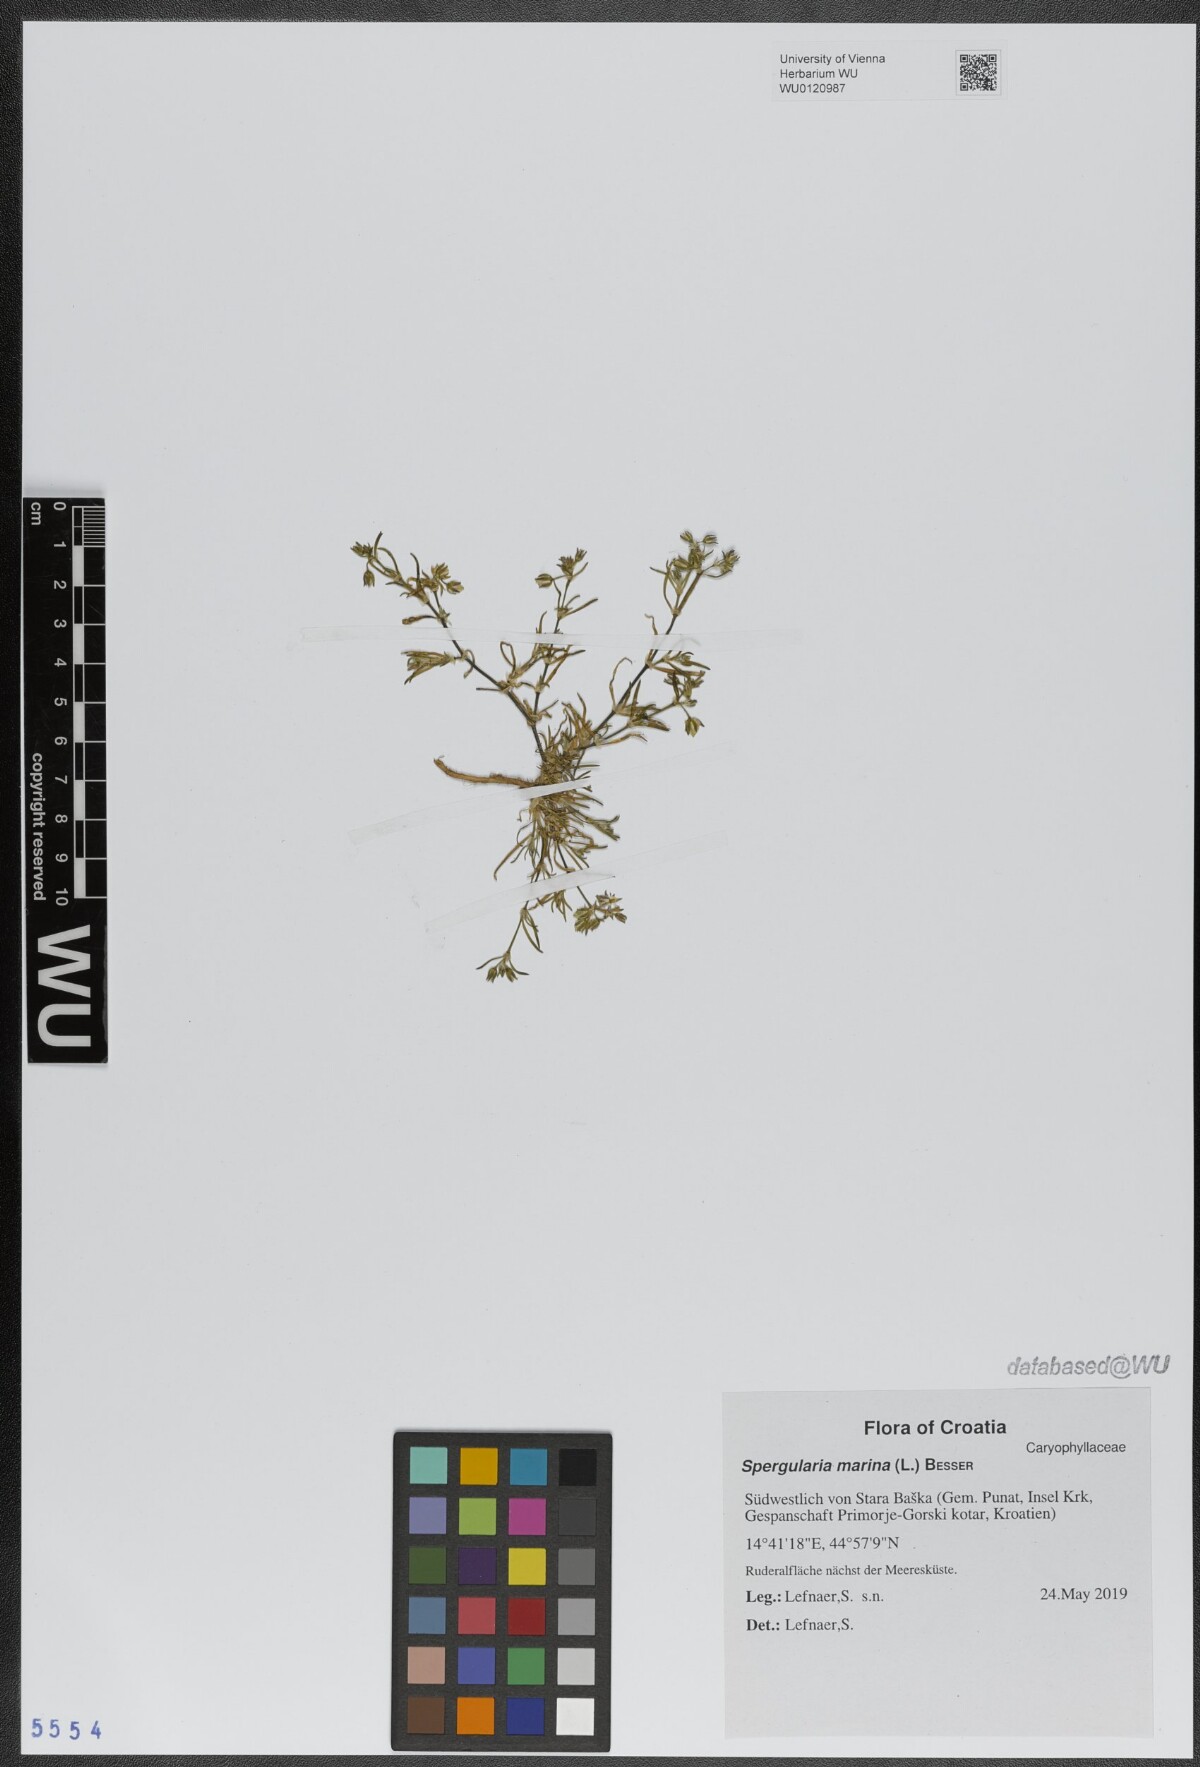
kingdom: Plantae
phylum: Tracheophyta
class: Magnoliopsida
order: Caryophyllales
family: Caryophyllaceae
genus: Spergularia
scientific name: Spergularia marina
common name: Lesser sea-spurrey
